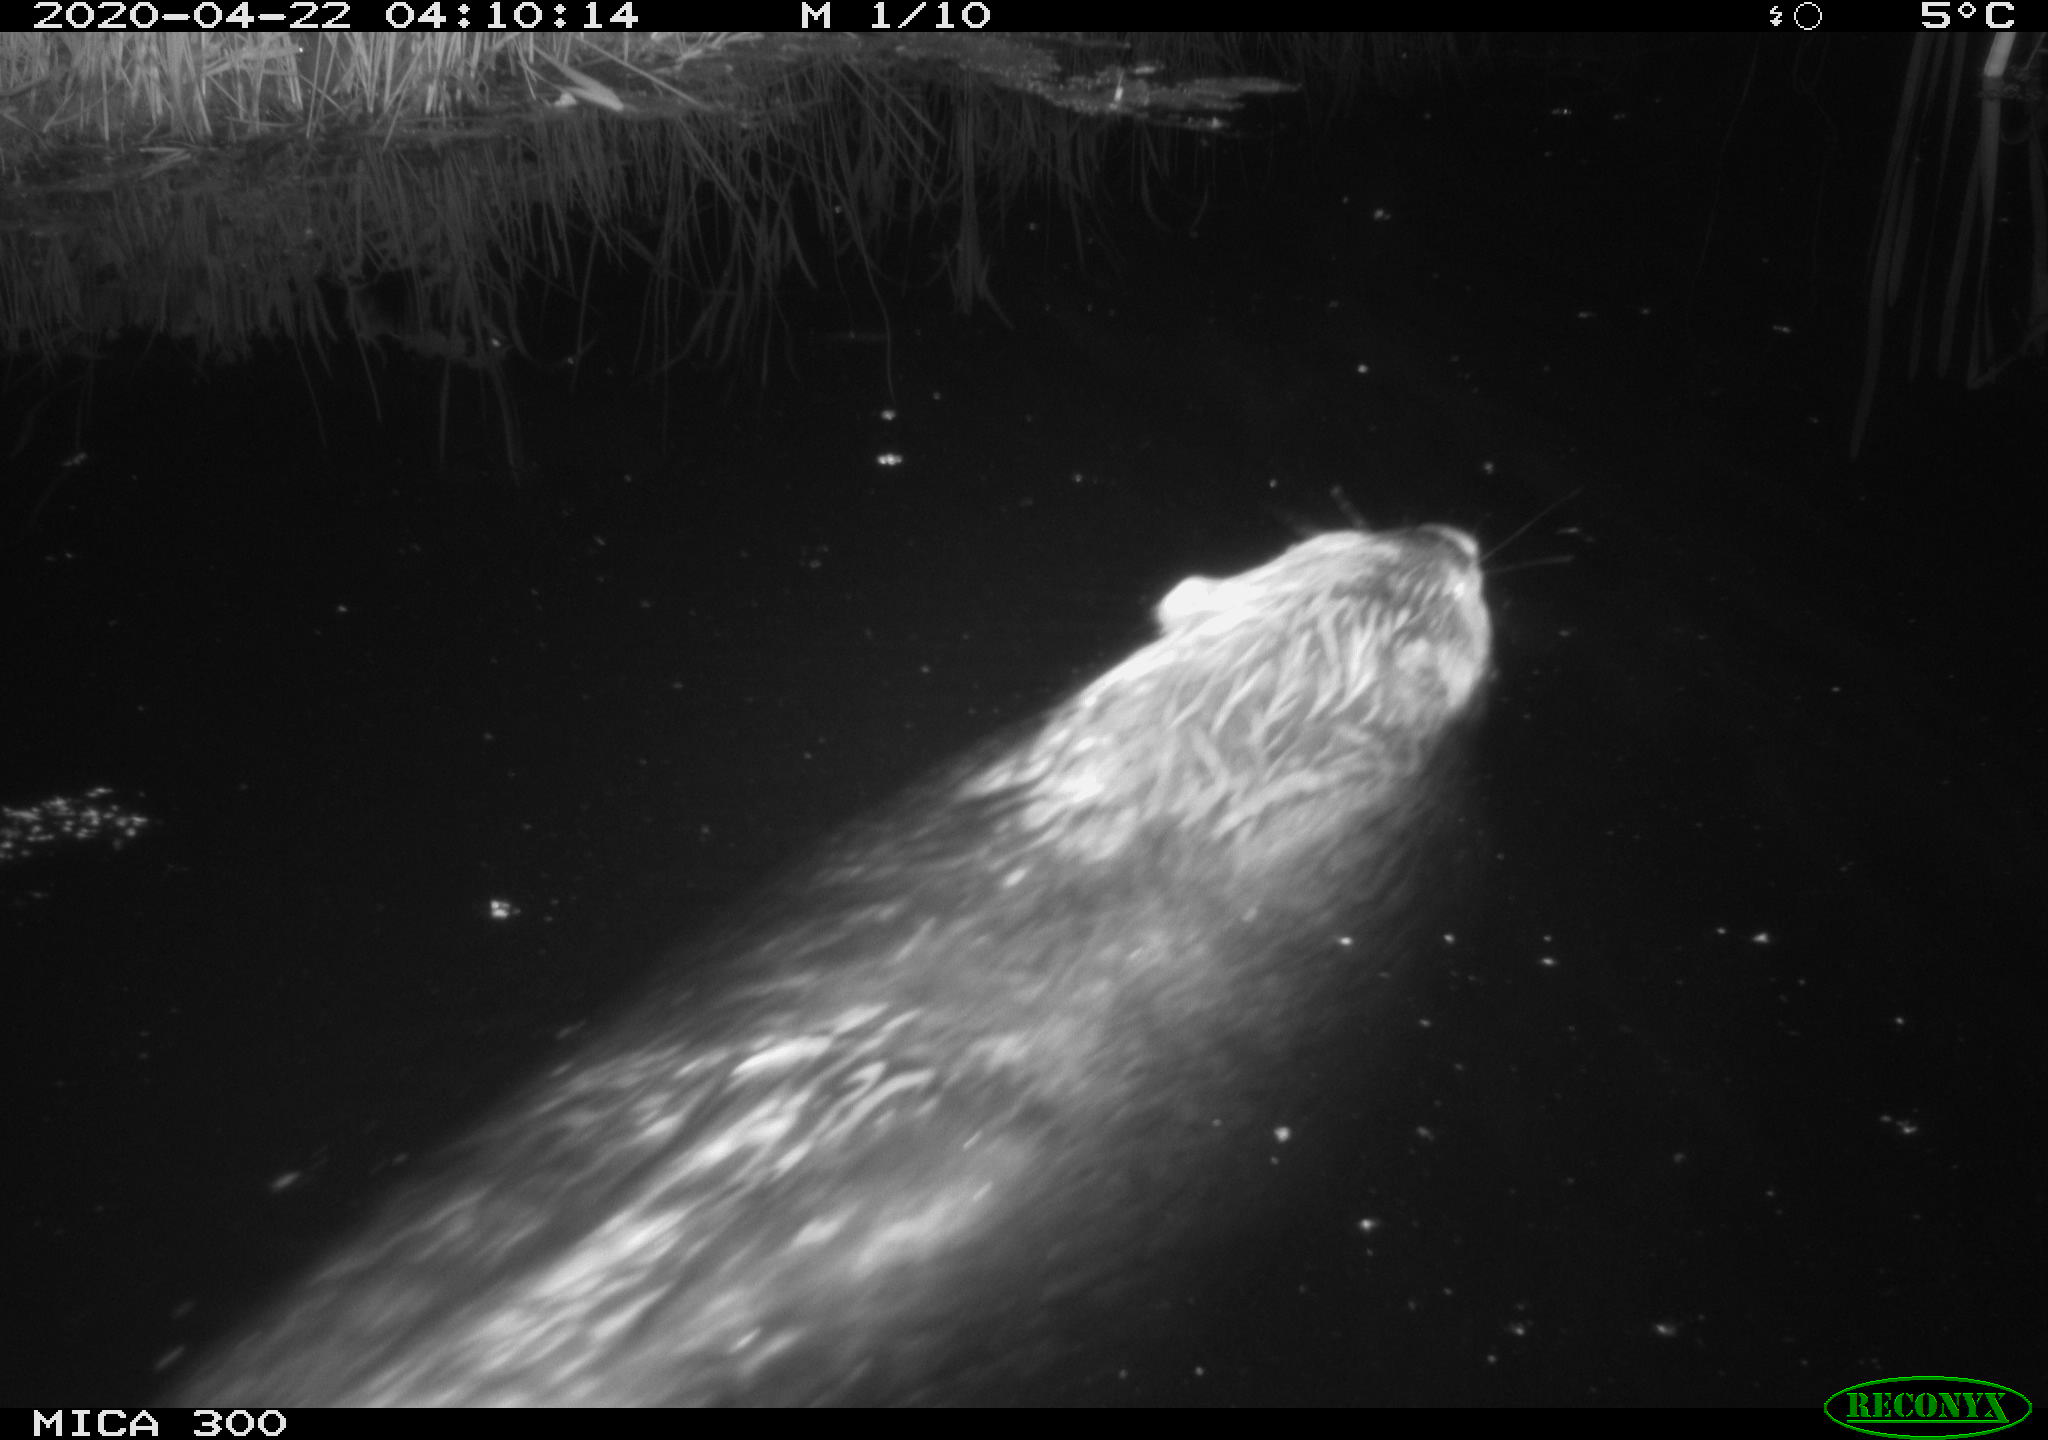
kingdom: Animalia
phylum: Chordata
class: Mammalia
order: Rodentia
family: Castoridae
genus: Castor
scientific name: Castor fiber
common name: Eurasian beaver
